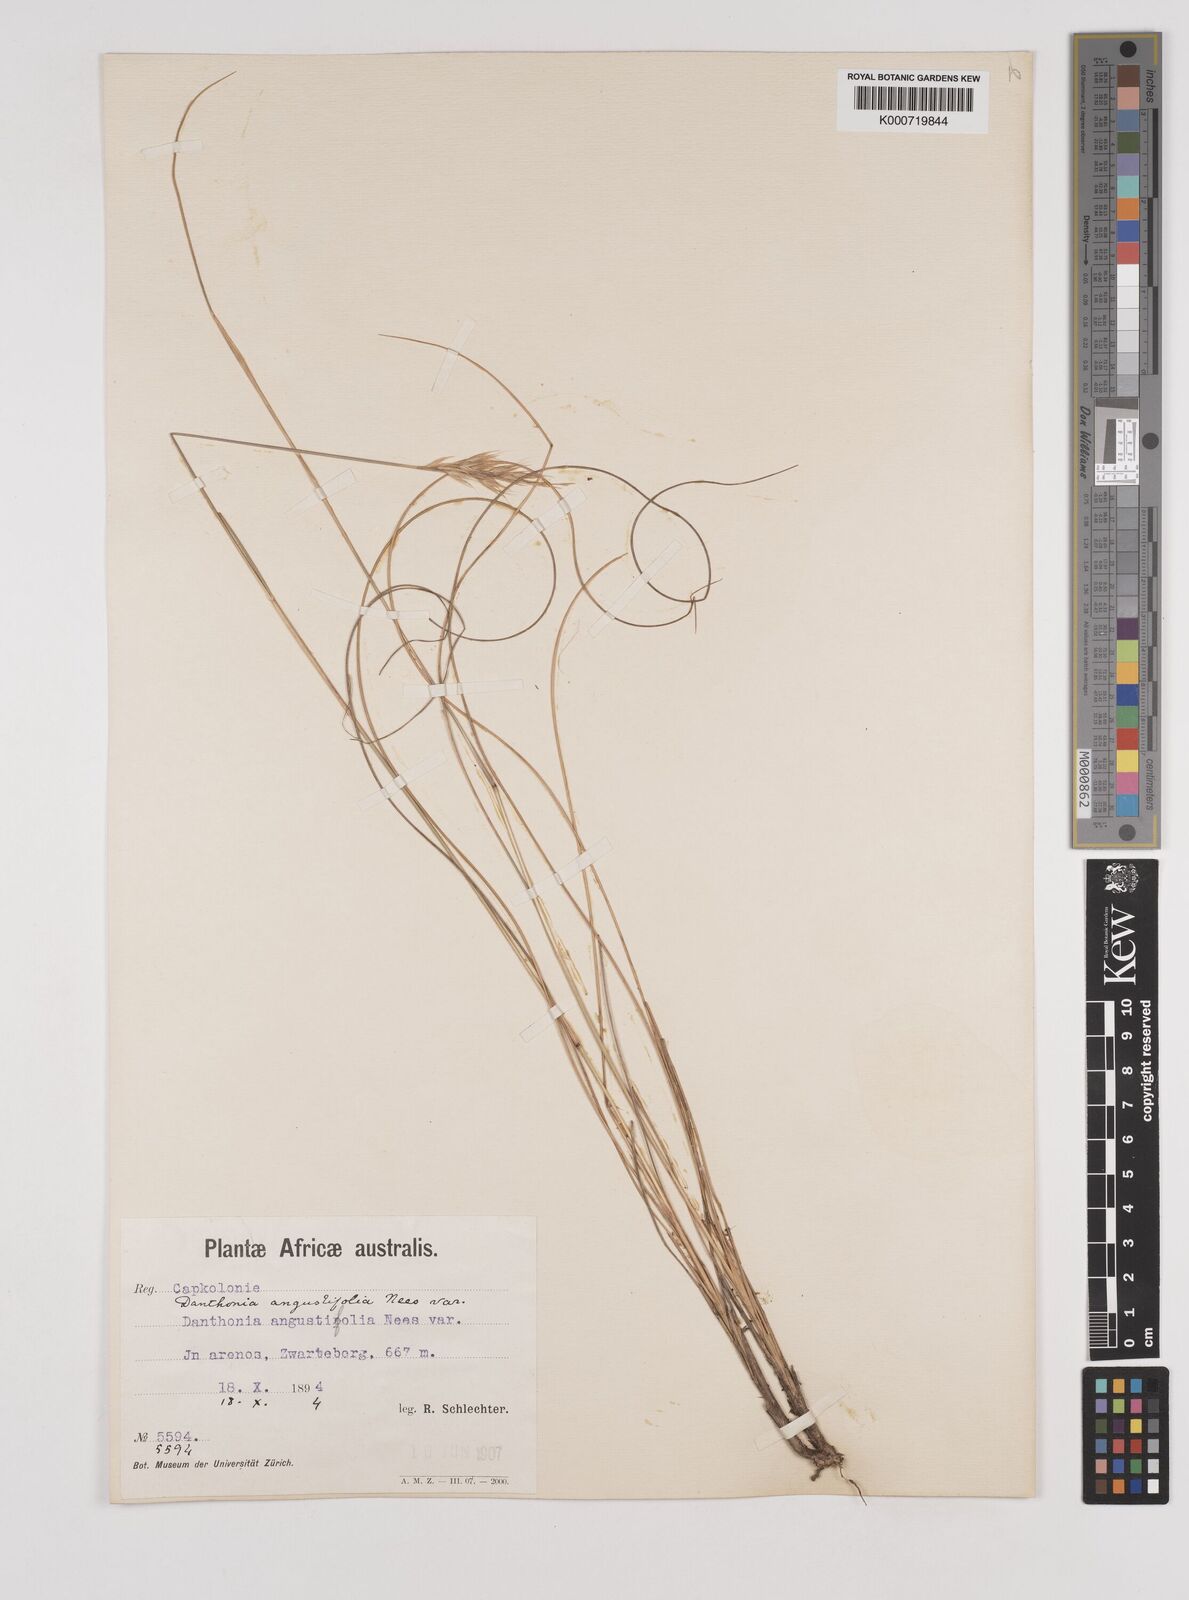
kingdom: Plantae
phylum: Tracheophyta
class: Liliopsida
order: Poales
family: Poaceae
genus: Pentaschistis
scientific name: Pentaschistis
